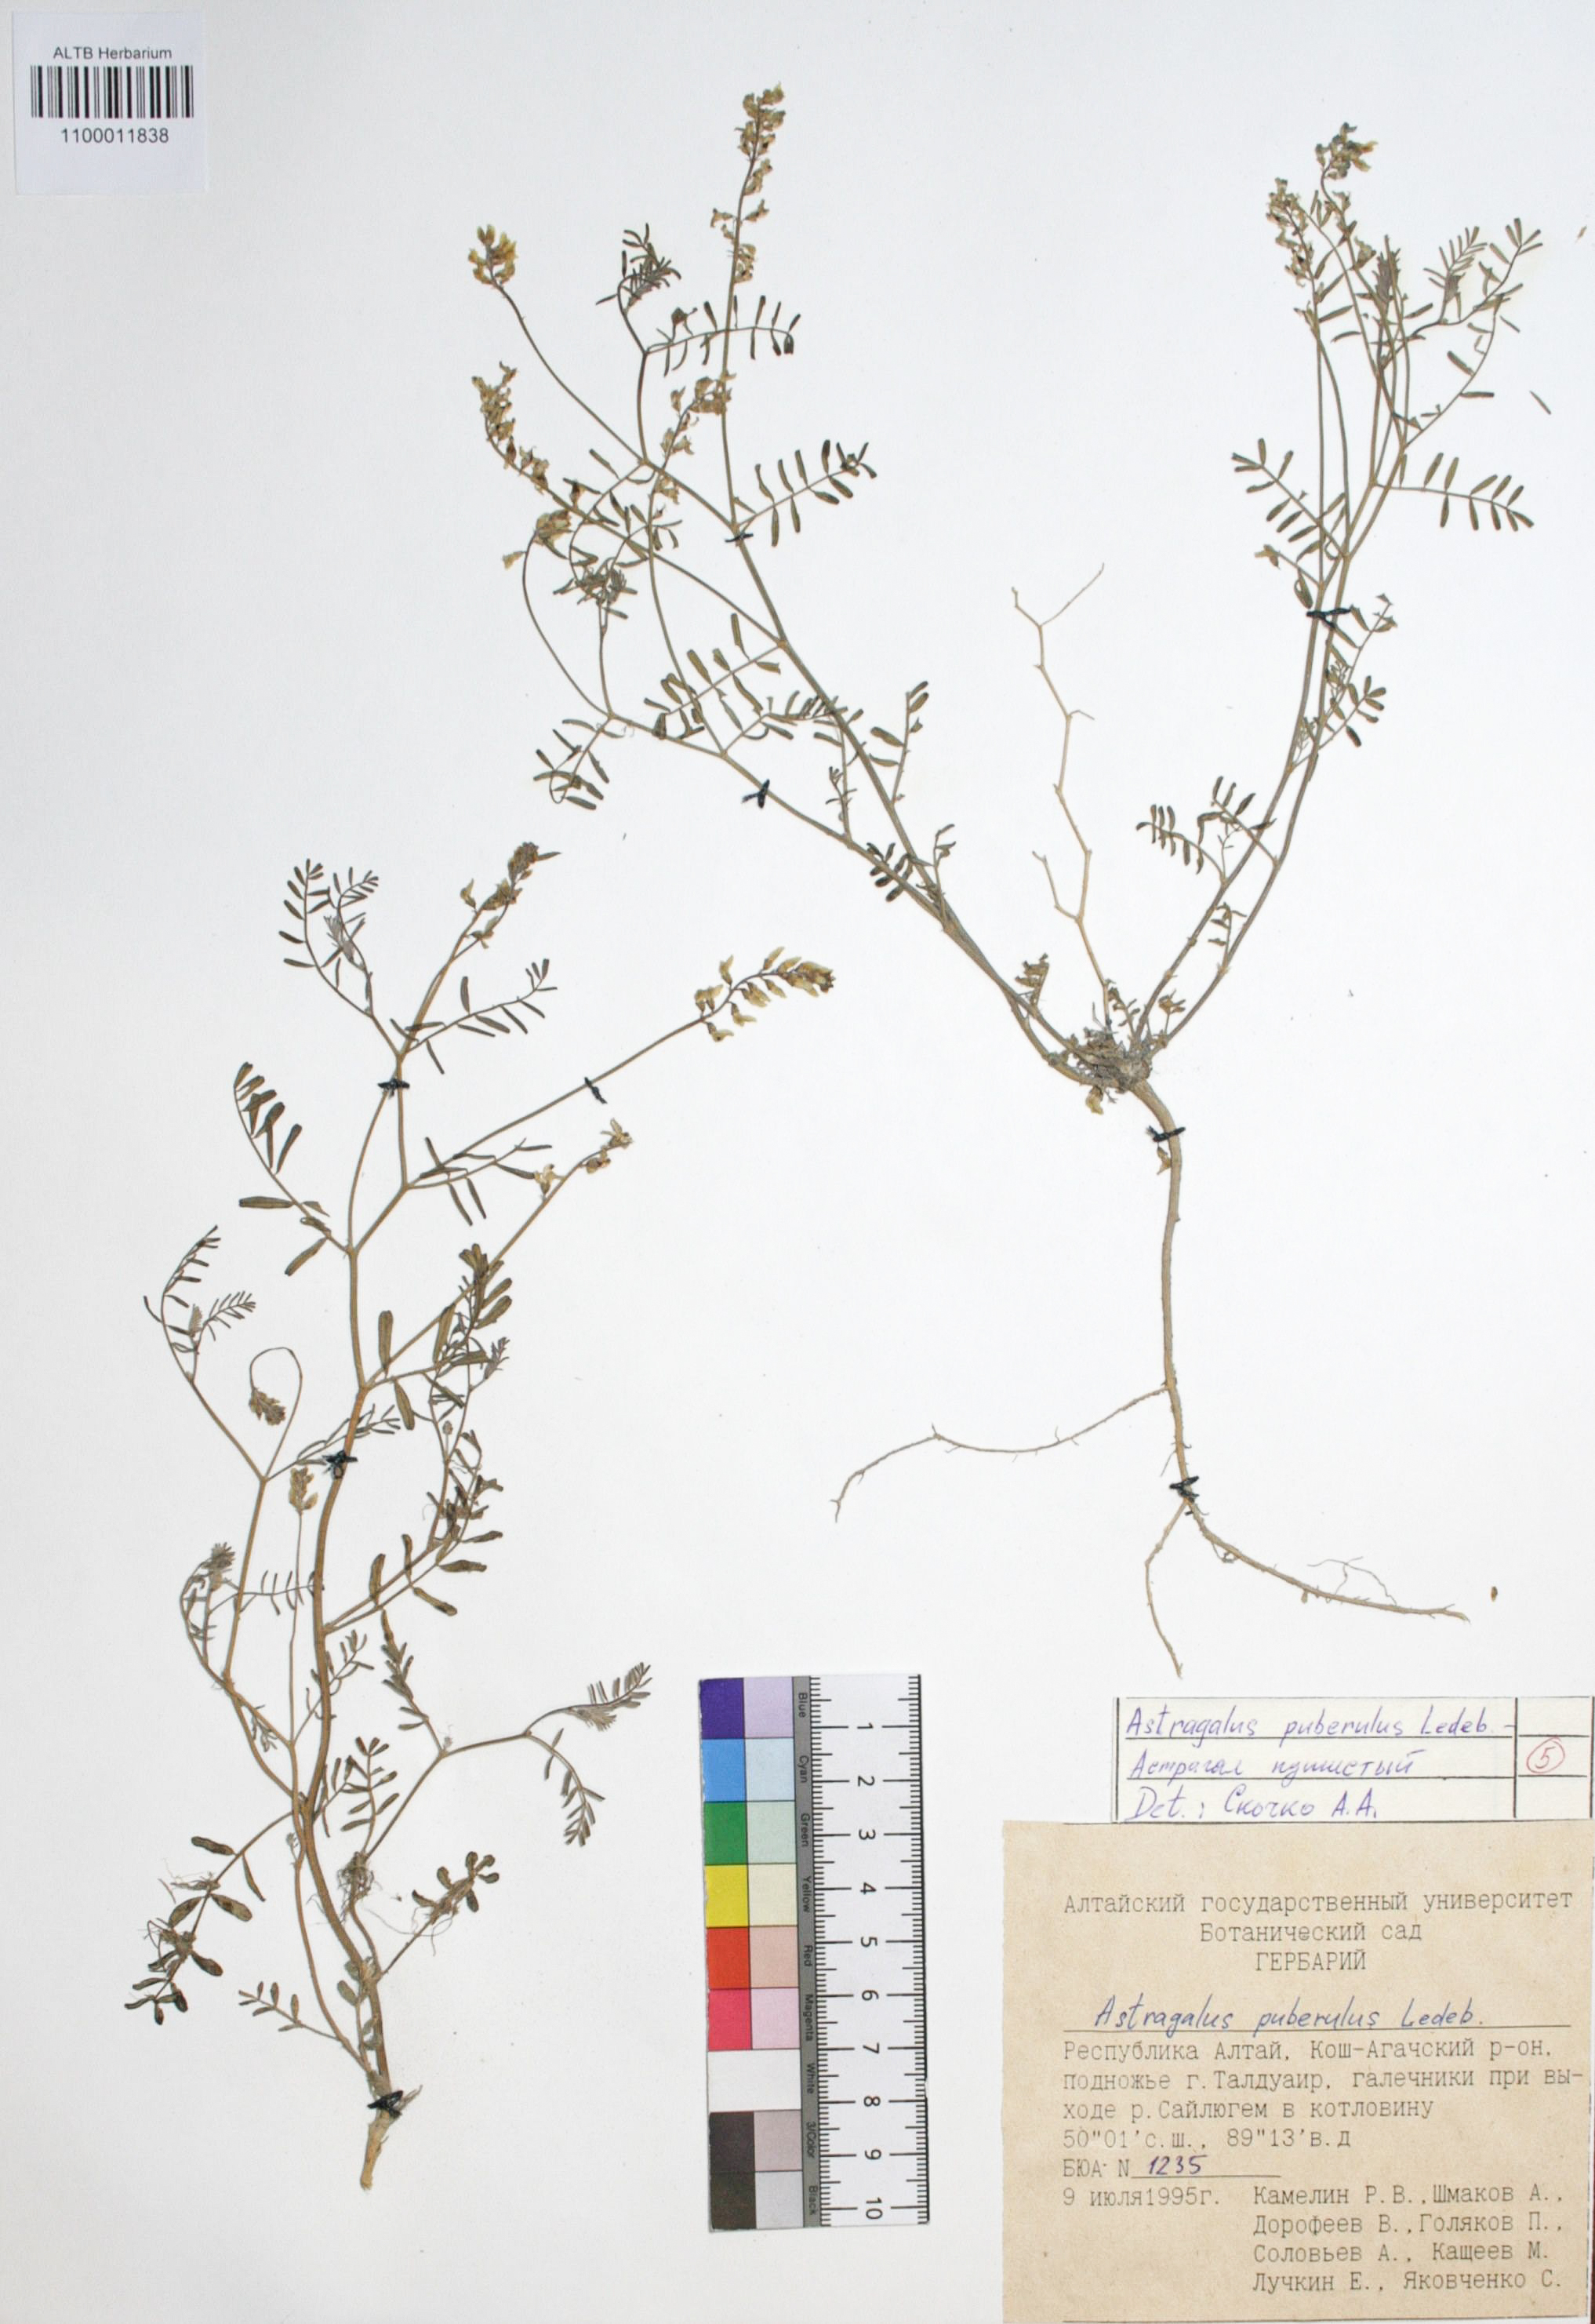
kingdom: Plantae
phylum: Tracheophyta
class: Magnoliopsida
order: Fabales
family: Fabaceae
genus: Astragalus
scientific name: Astragalus puberulus
